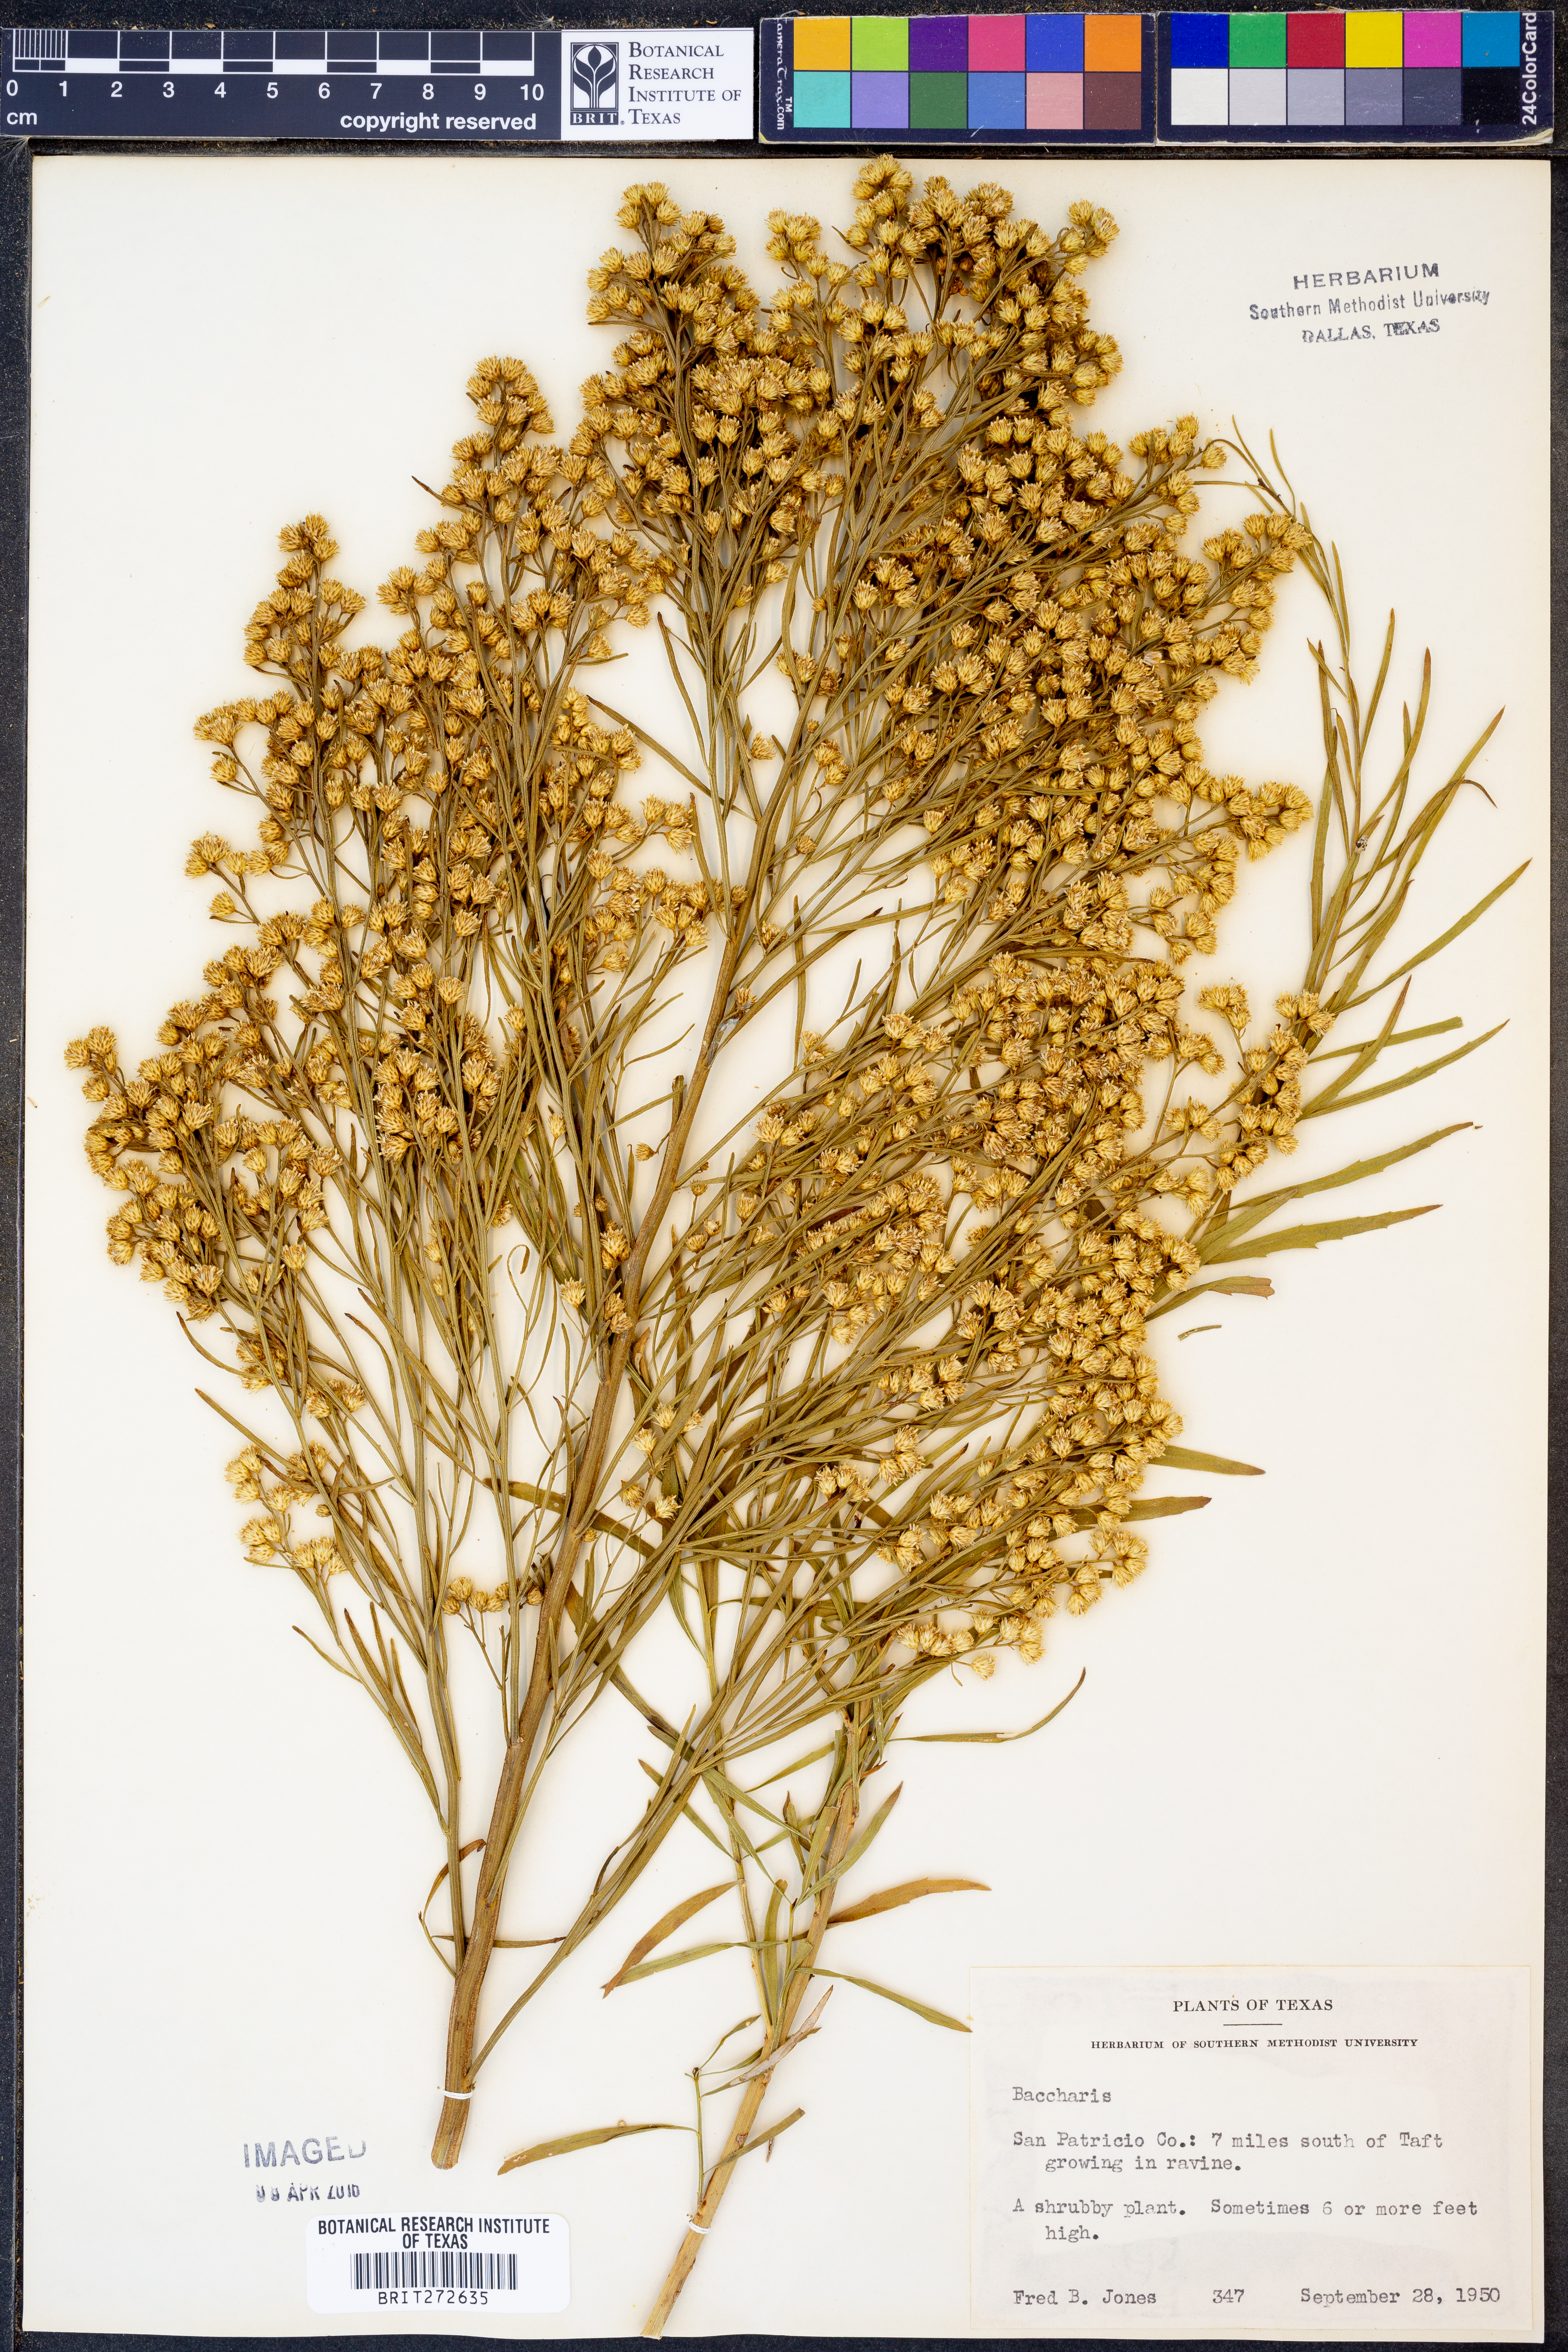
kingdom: Plantae
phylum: Tracheophyta
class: Magnoliopsida
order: Asterales
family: Asteraceae
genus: Baccharis
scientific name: Baccharis
